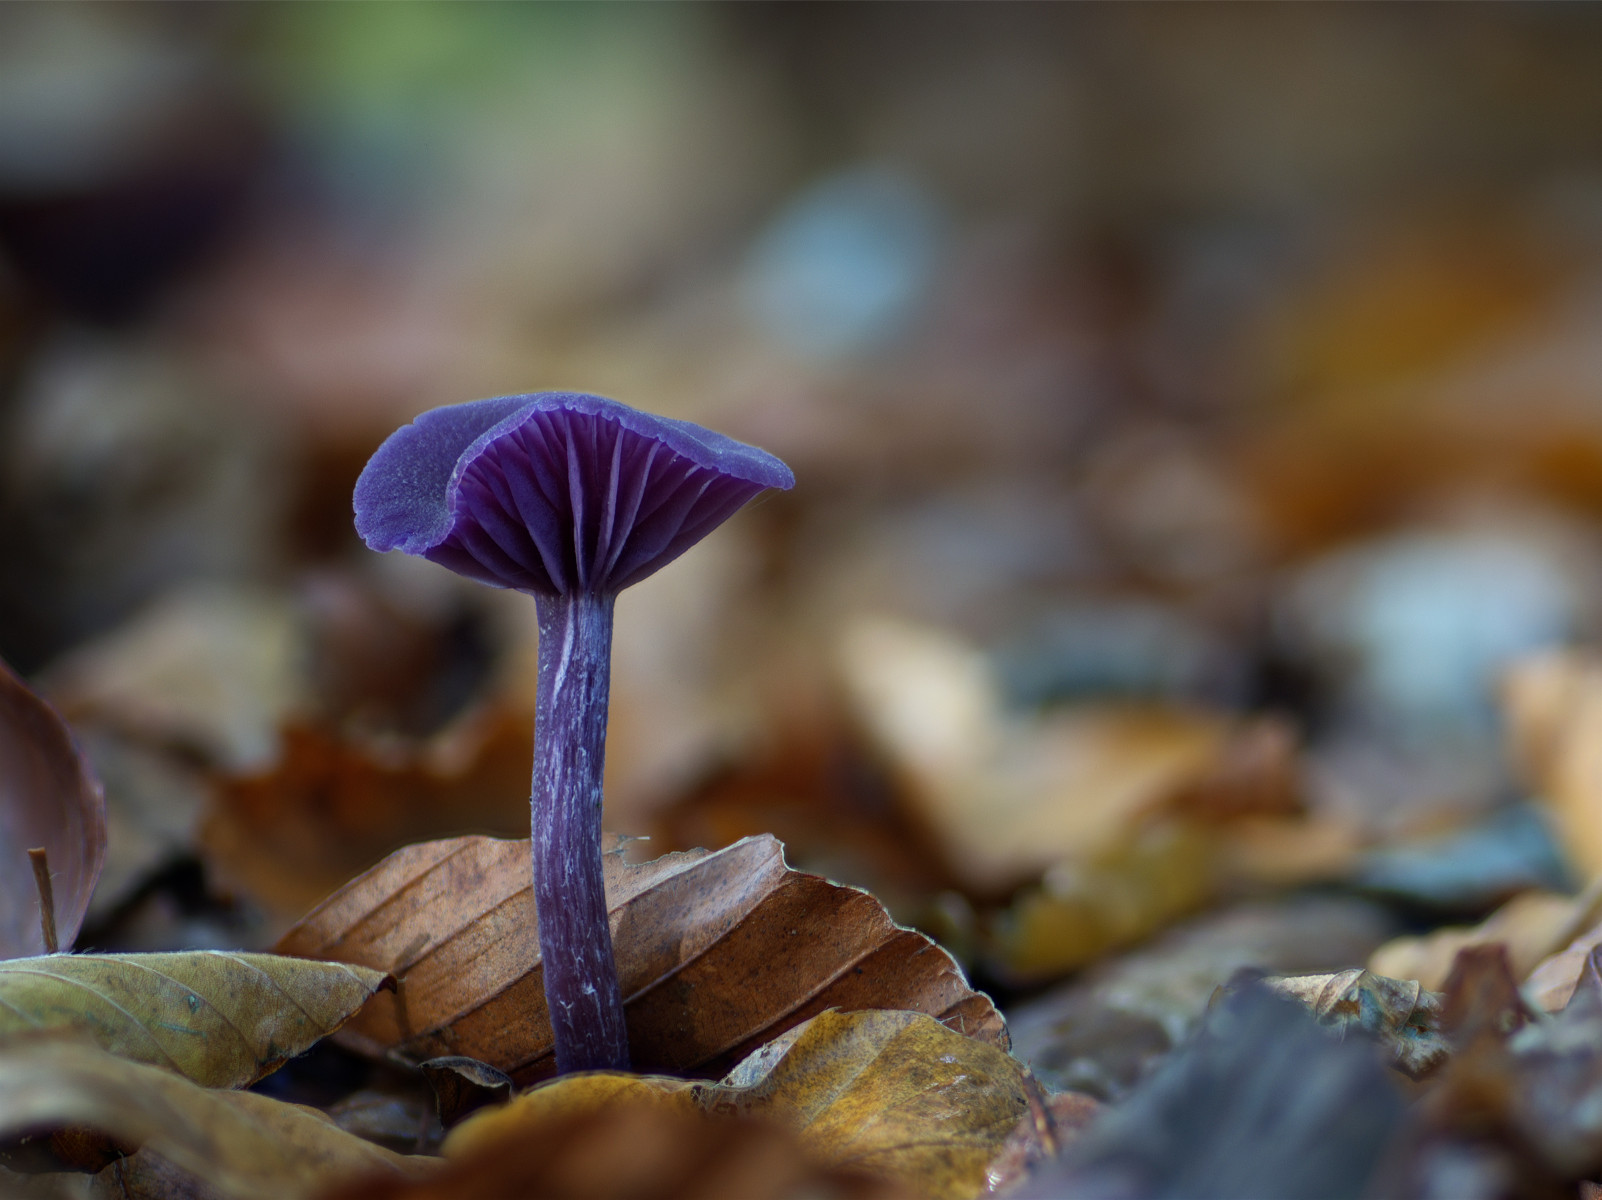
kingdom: Fungi
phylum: Basidiomycota
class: Agaricomycetes
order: Agaricales
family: Hydnangiaceae
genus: Laccaria
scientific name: Laccaria amethystina
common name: violet ametysthat
